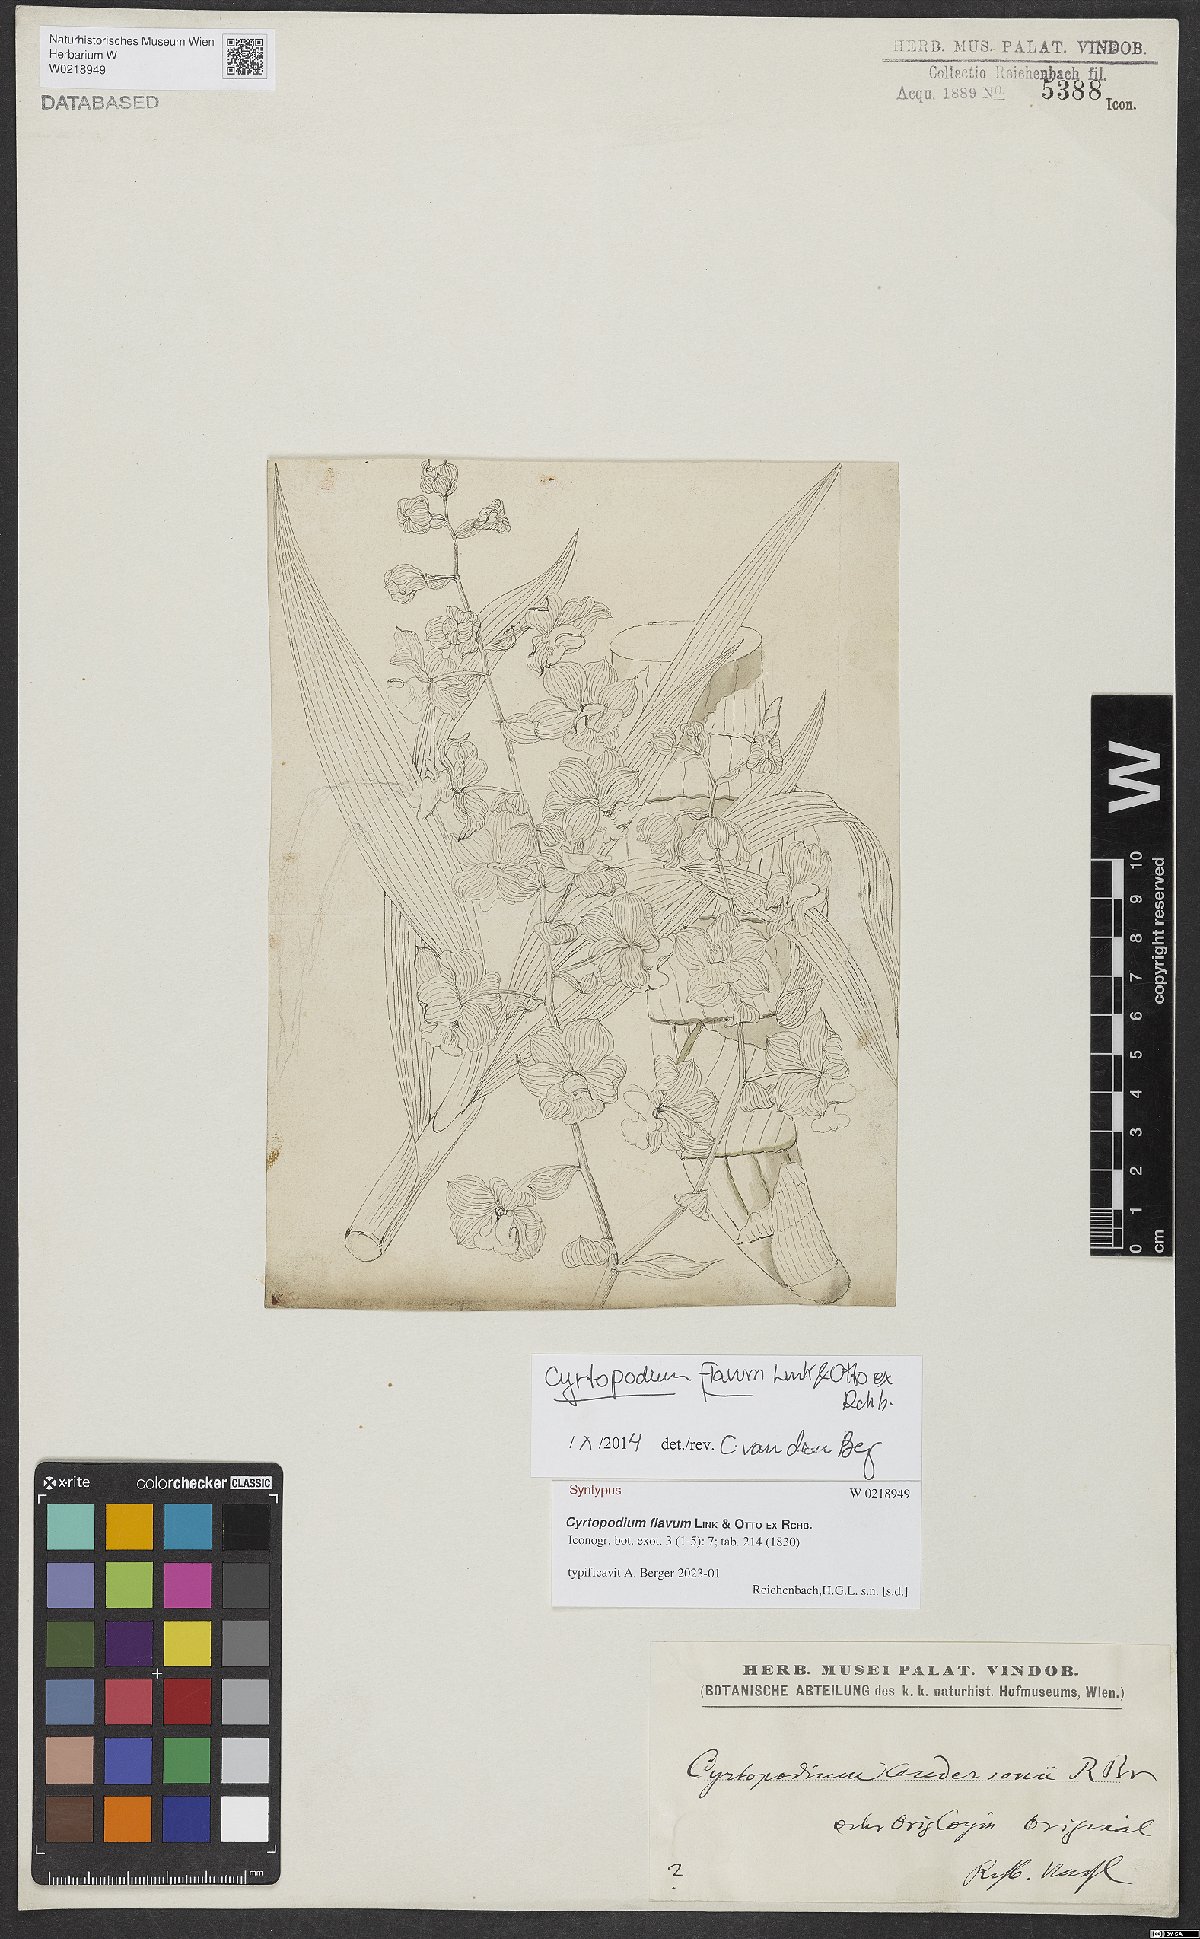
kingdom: Plantae
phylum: Tracheophyta
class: Liliopsida
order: Asparagales
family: Orchidaceae
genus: Cyrtopodium
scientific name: Cyrtopodium flavum
